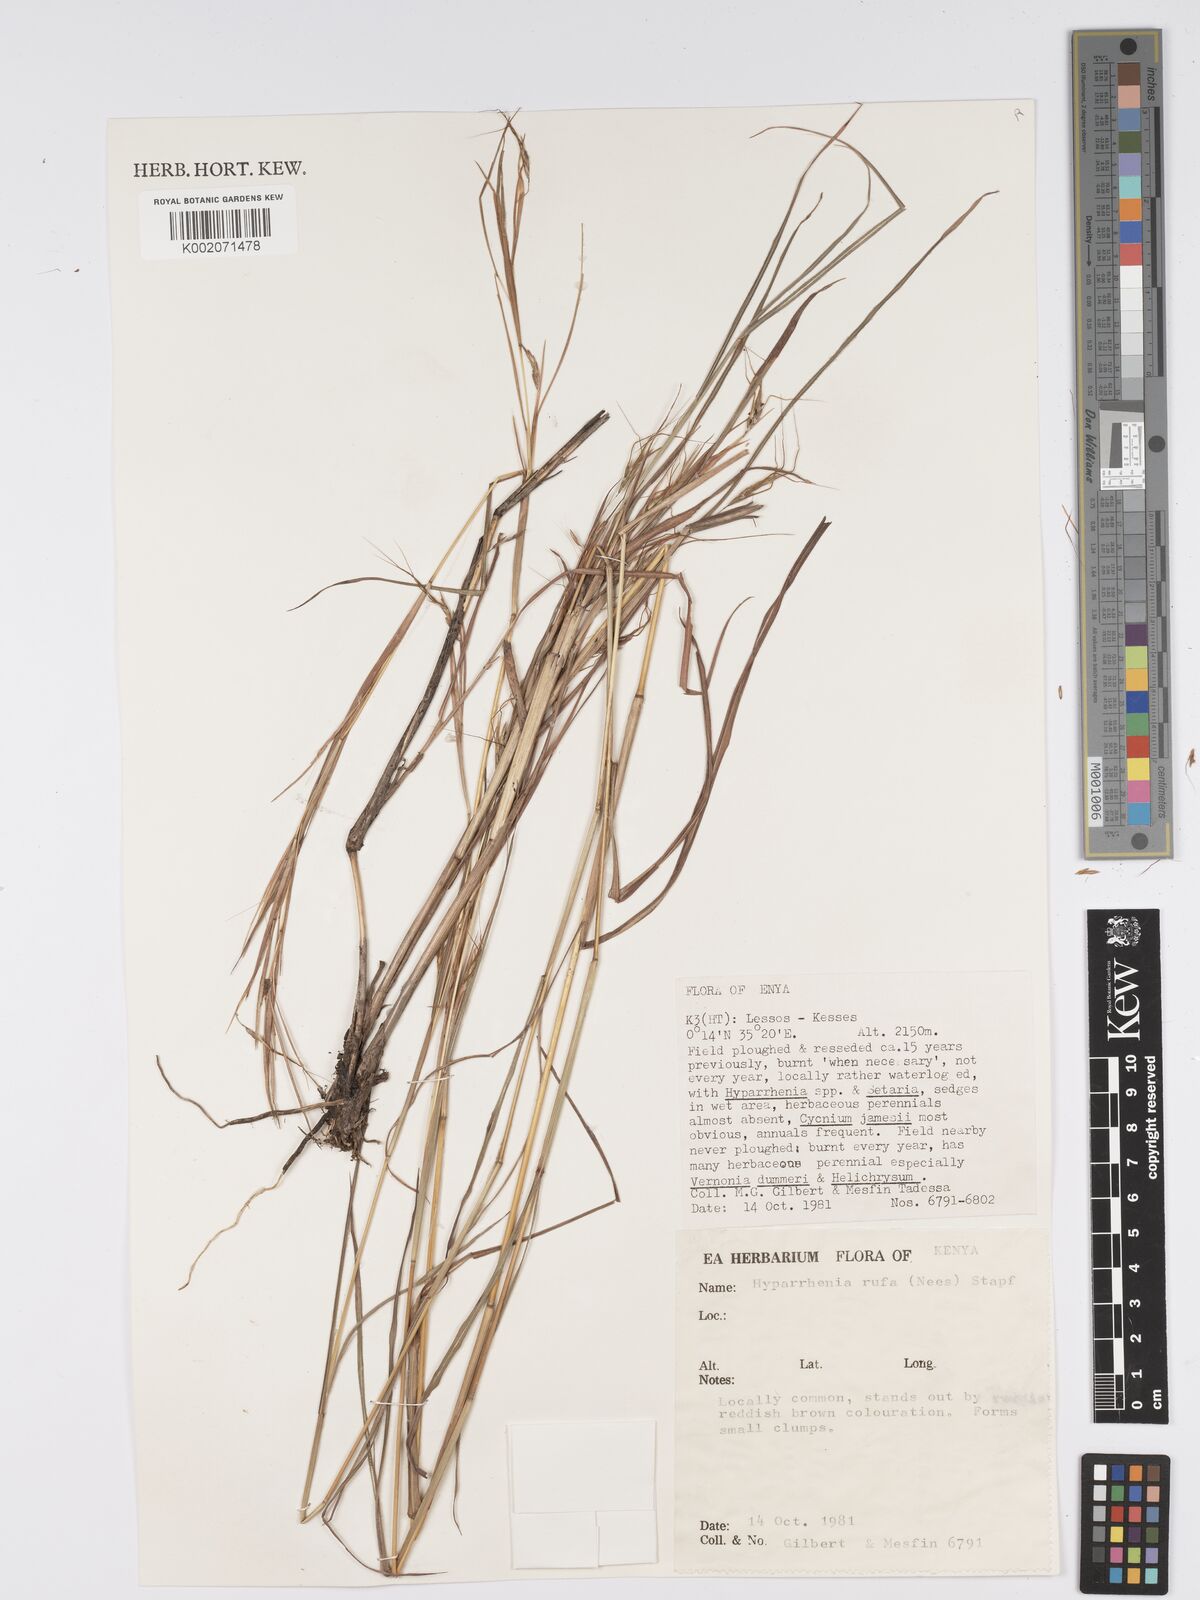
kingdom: Plantae
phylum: Tracheophyta
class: Liliopsida
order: Poales
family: Poaceae
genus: Hyparrhenia
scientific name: Hyparrhenia rufa
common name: Jaraguagrass
